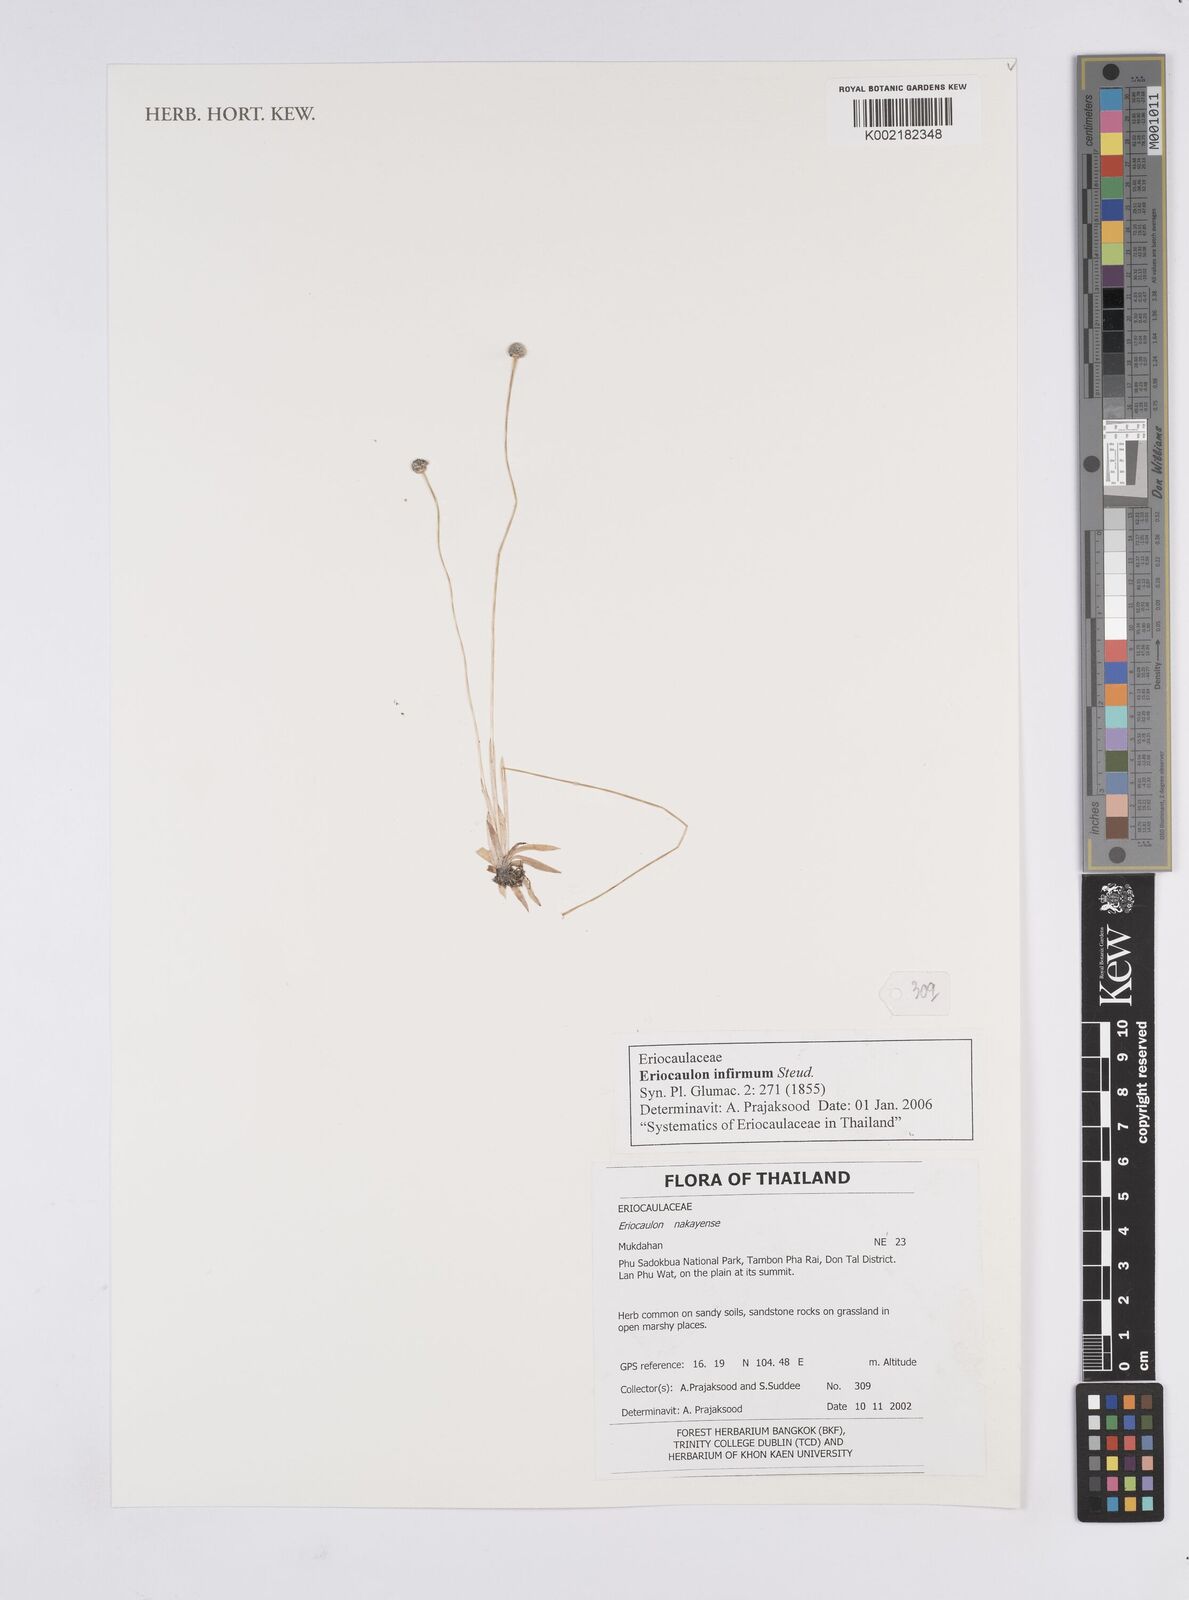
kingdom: Plantae
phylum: Tracheophyta
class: Liliopsida
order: Poales
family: Eriocaulaceae
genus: Eriocaulon
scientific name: Eriocaulon infirmum
